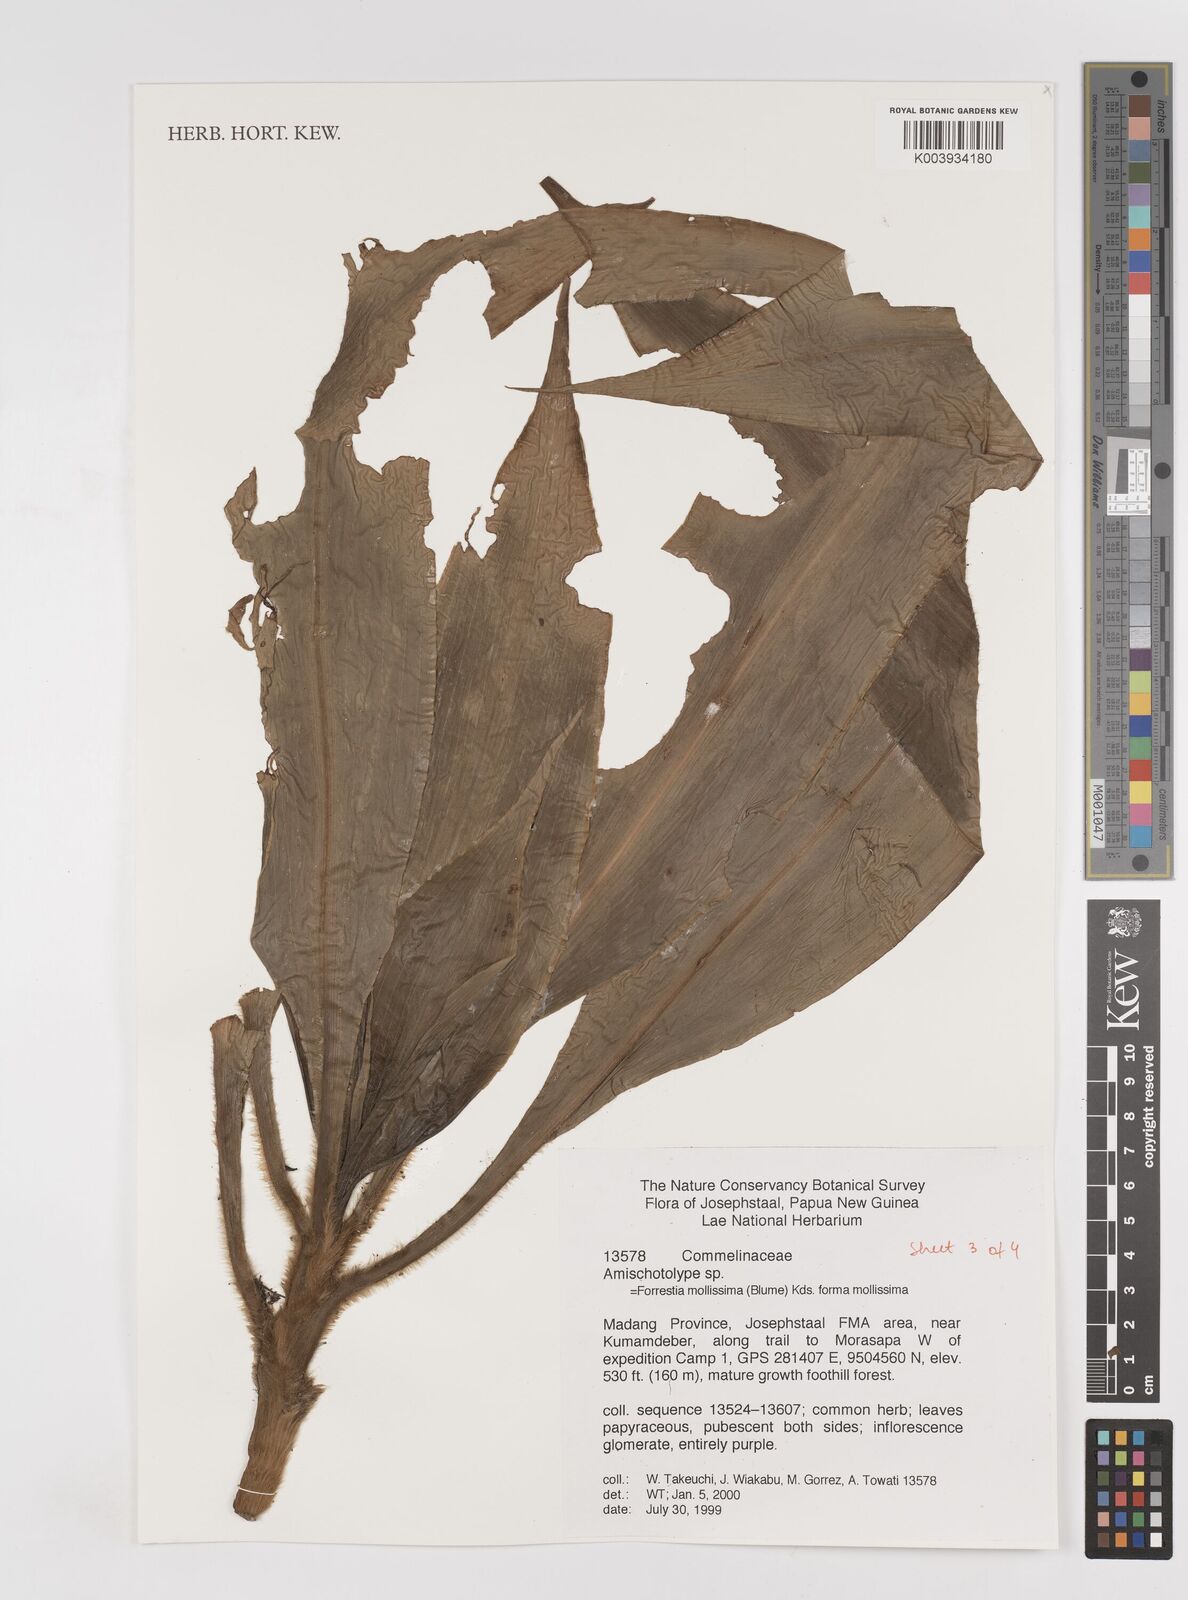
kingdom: Plantae
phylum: Tracheophyta
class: Liliopsida
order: Commelinales
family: Commelinaceae
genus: Amischotolype
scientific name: Amischotolype mollissima
